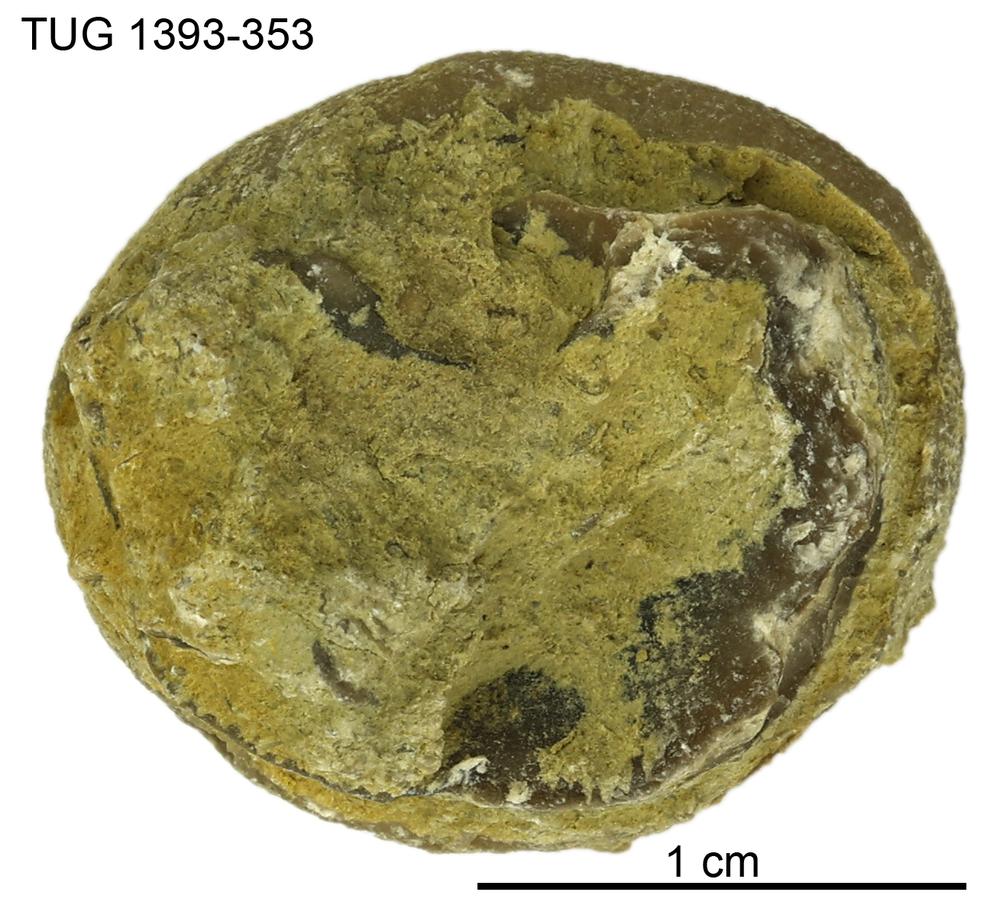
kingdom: Animalia
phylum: Bryozoa
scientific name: Bryozoa
